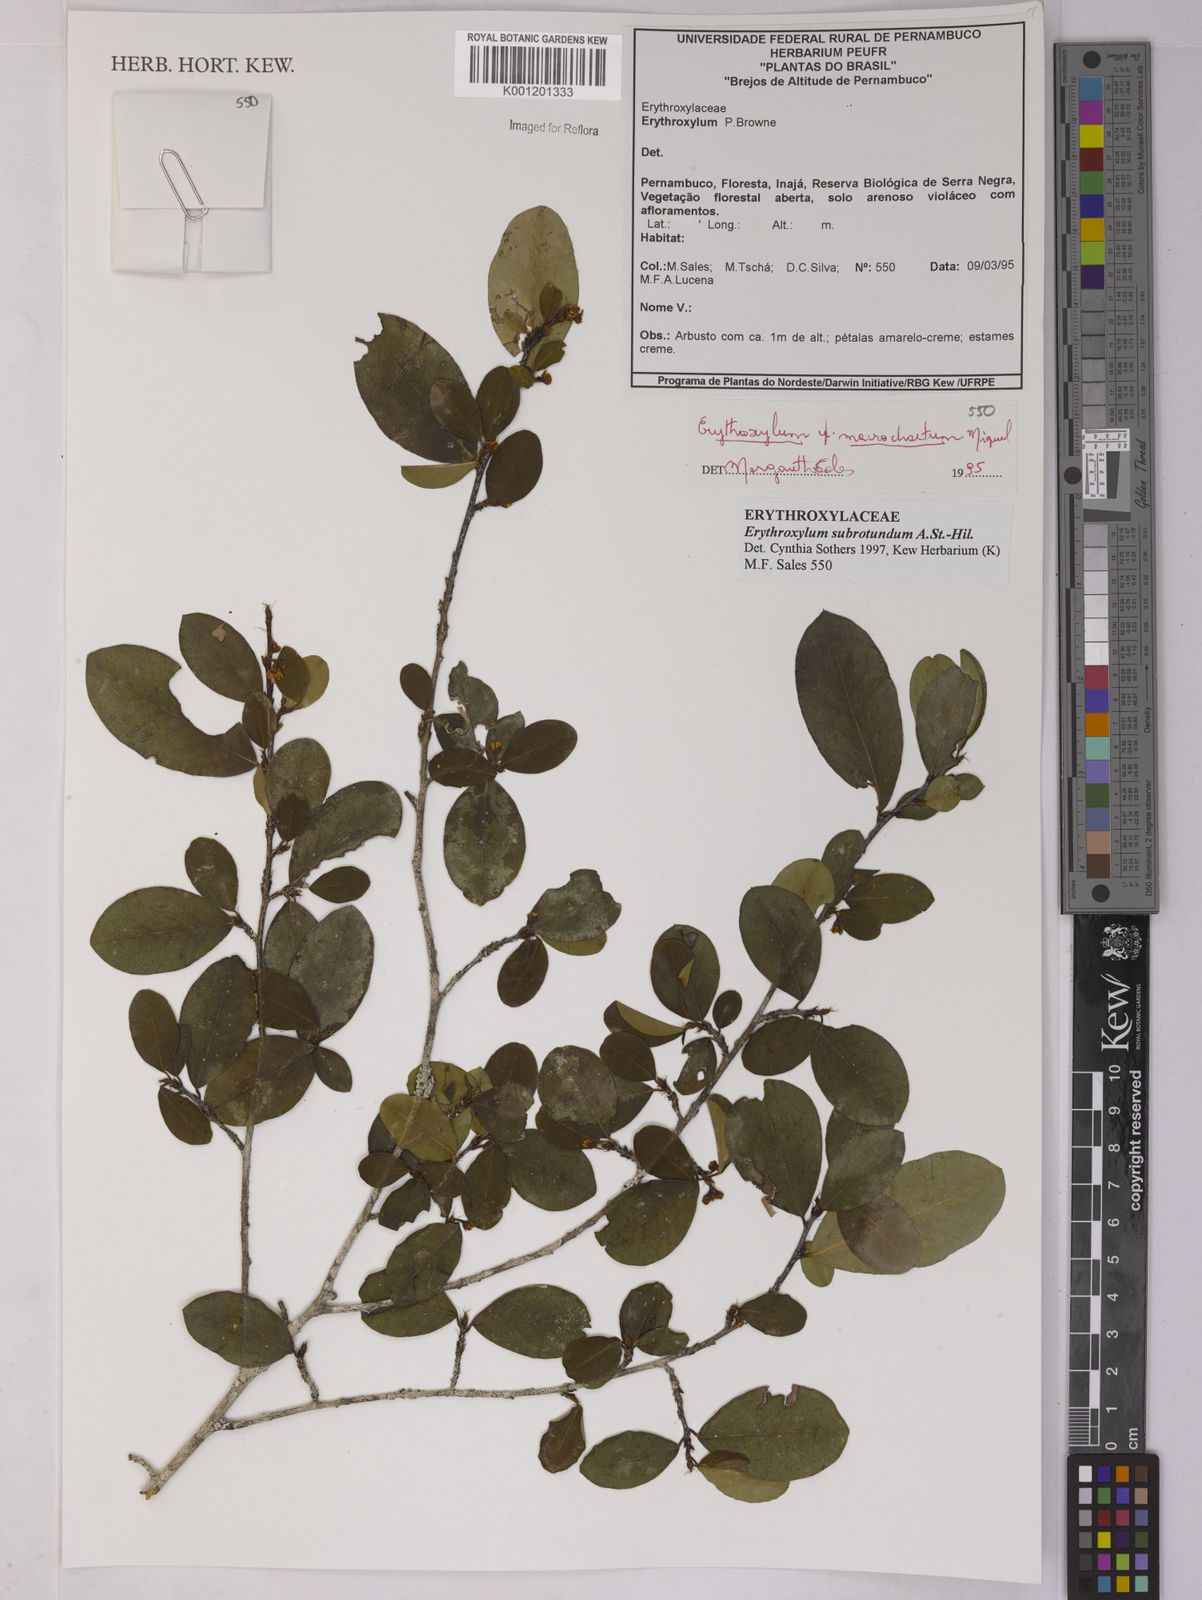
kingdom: Plantae
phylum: Tracheophyta
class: Magnoliopsida
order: Malpighiales
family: Erythroxylaceae
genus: Erythroxylum
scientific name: Erythroxylum subrotundum
